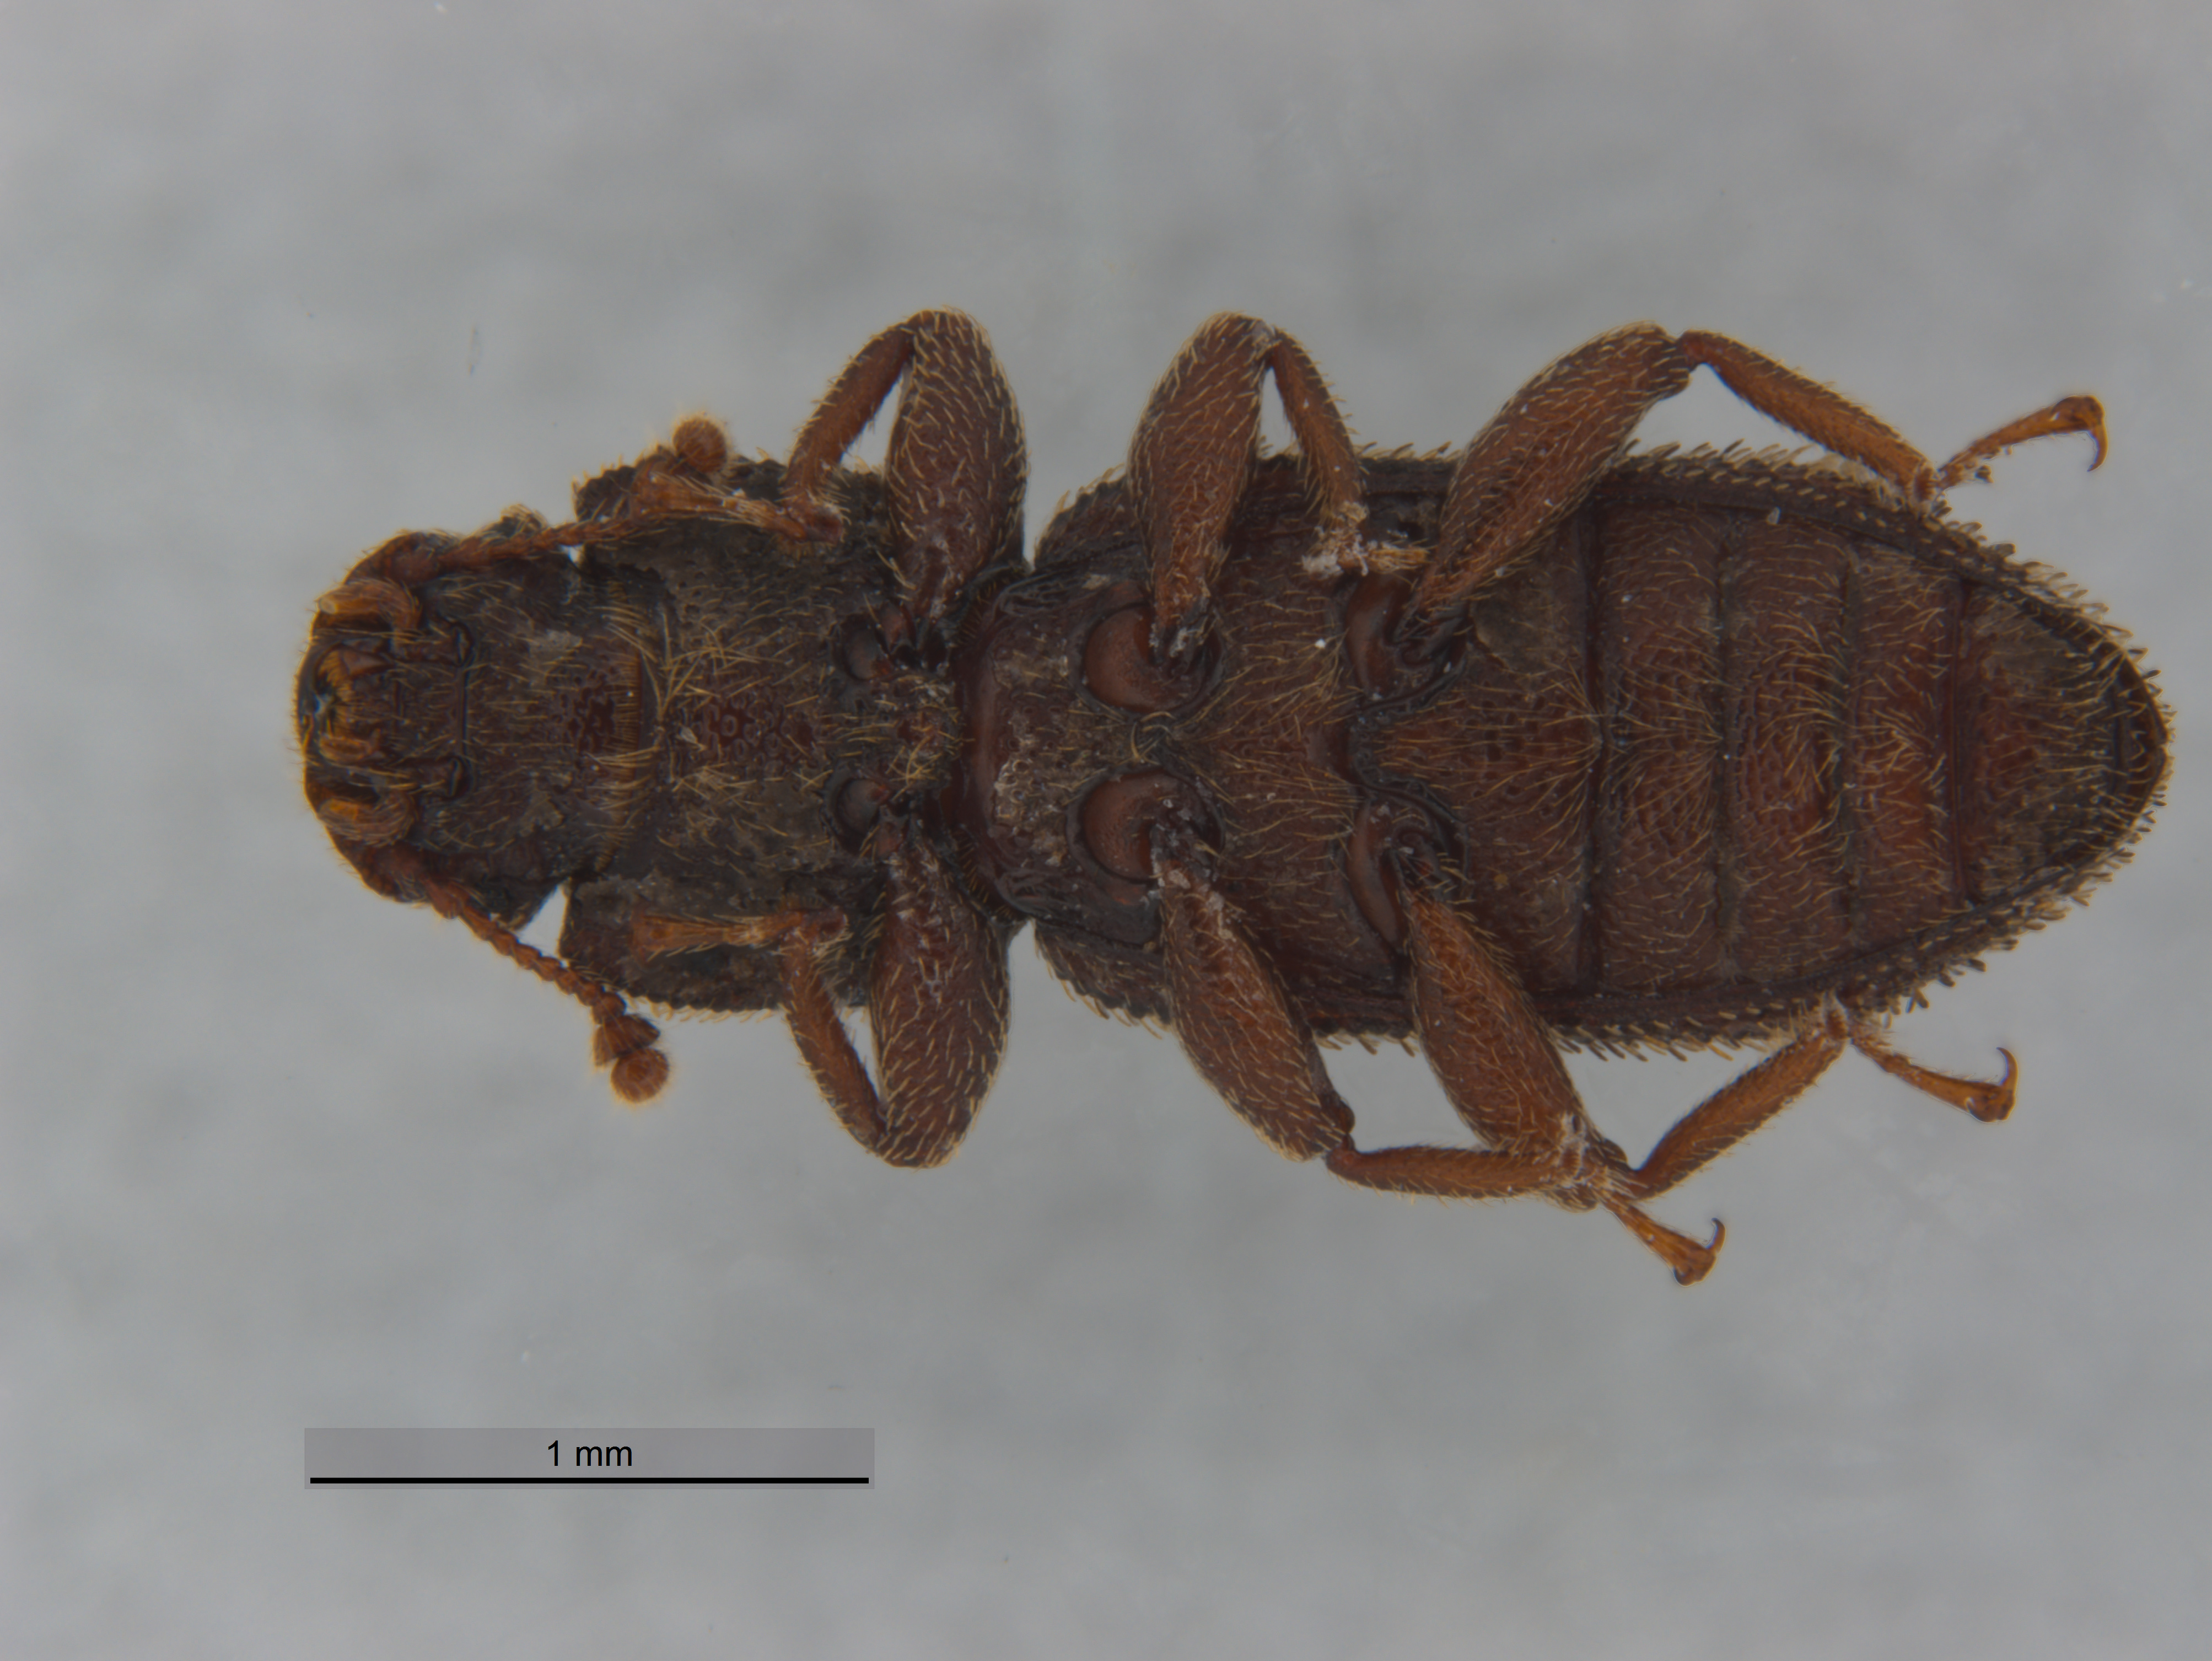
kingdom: Animalia
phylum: Arthropoda
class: Insecta
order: Coleoptera
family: Zopheridae
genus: Notocoxelus
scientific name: Notocoxelus
